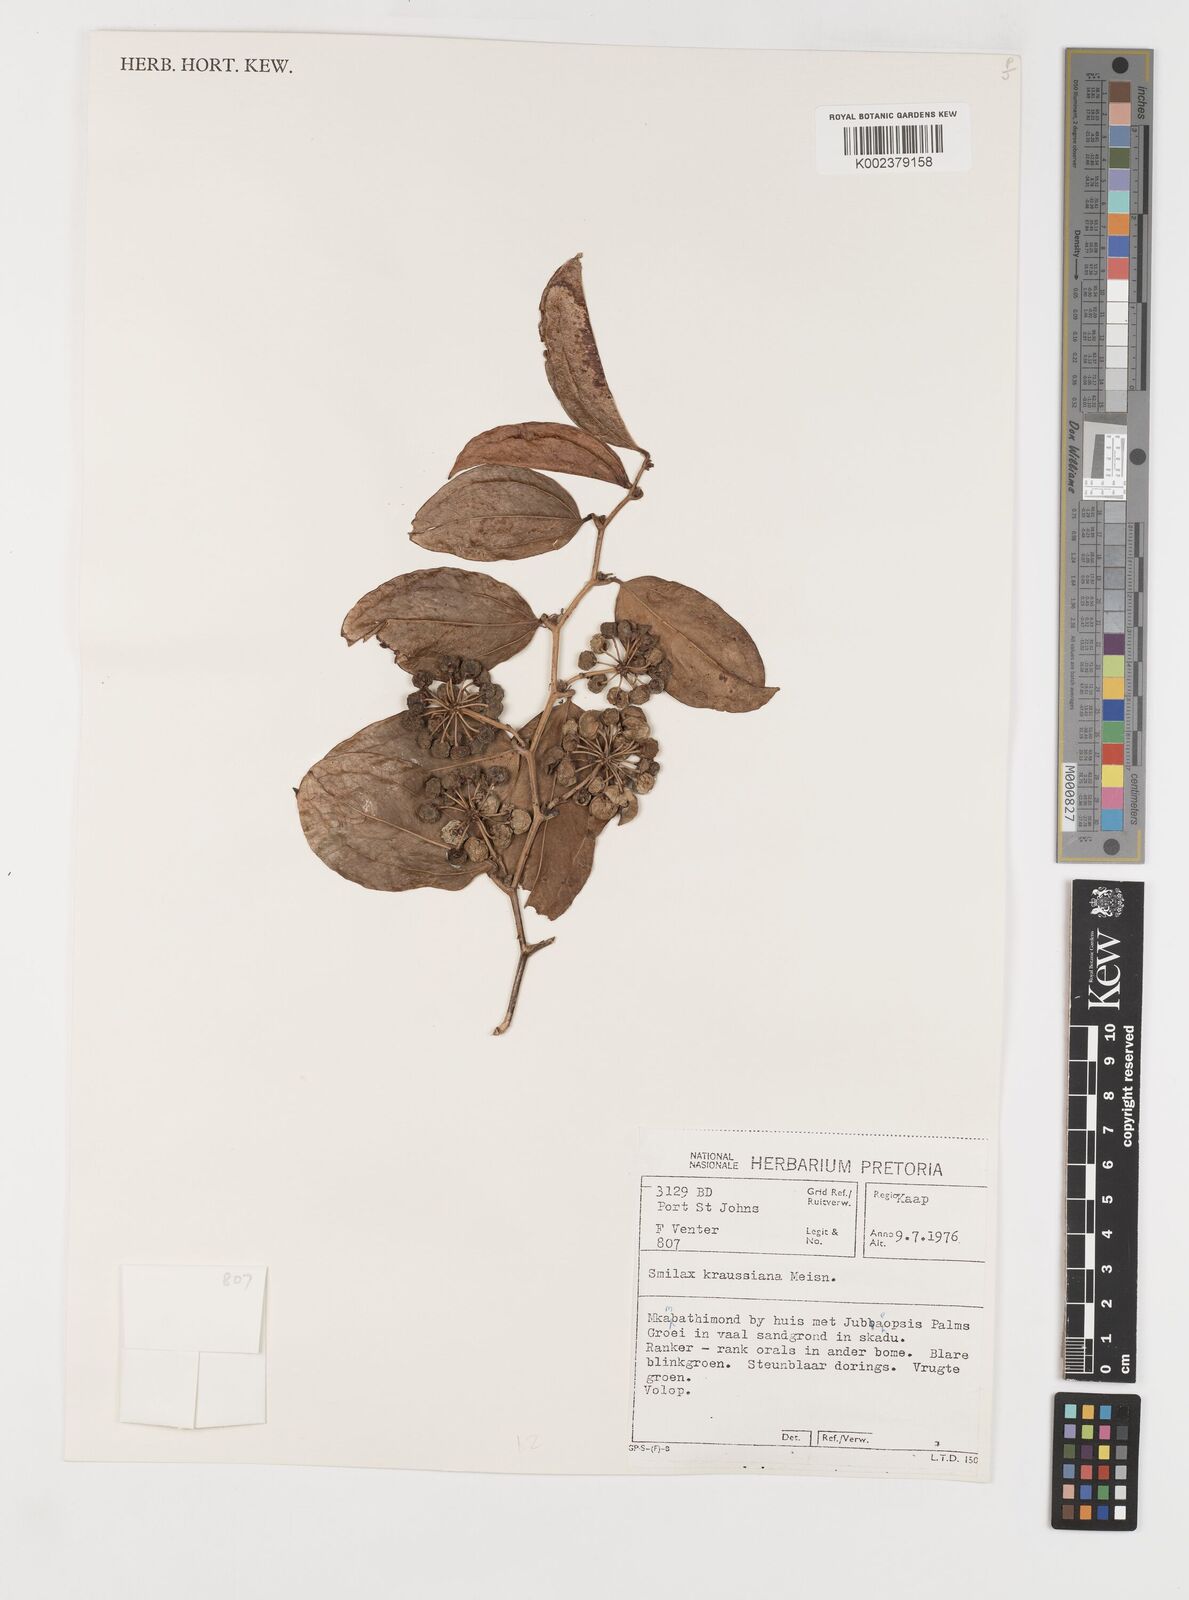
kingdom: Plantae
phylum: Tracheophyta
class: Liliopsida
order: Liliales
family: Smilacaceae
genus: Smilax
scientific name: Smilax anceps
